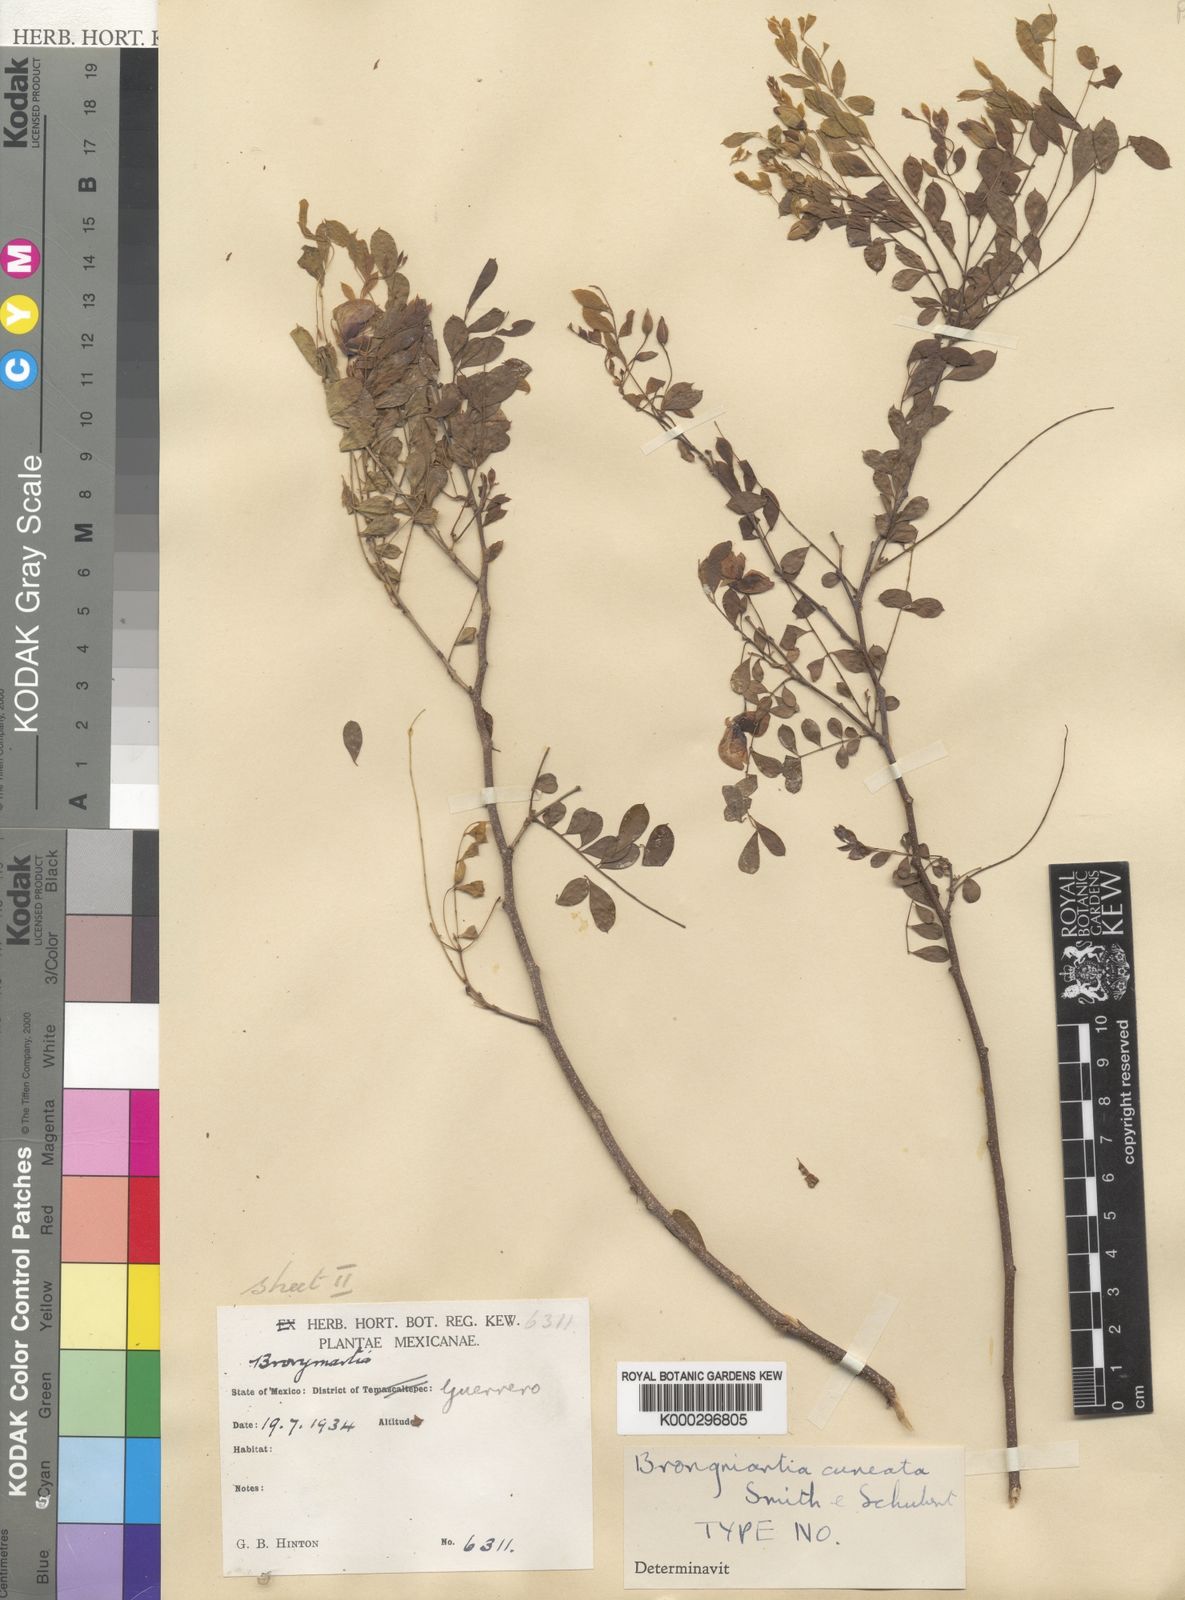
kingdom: Plantae
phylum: Tracheophyta
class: Magnoliopsida
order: Fabales
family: Fabaceae
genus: Brongniartia
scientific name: Brongniartia cuneata
